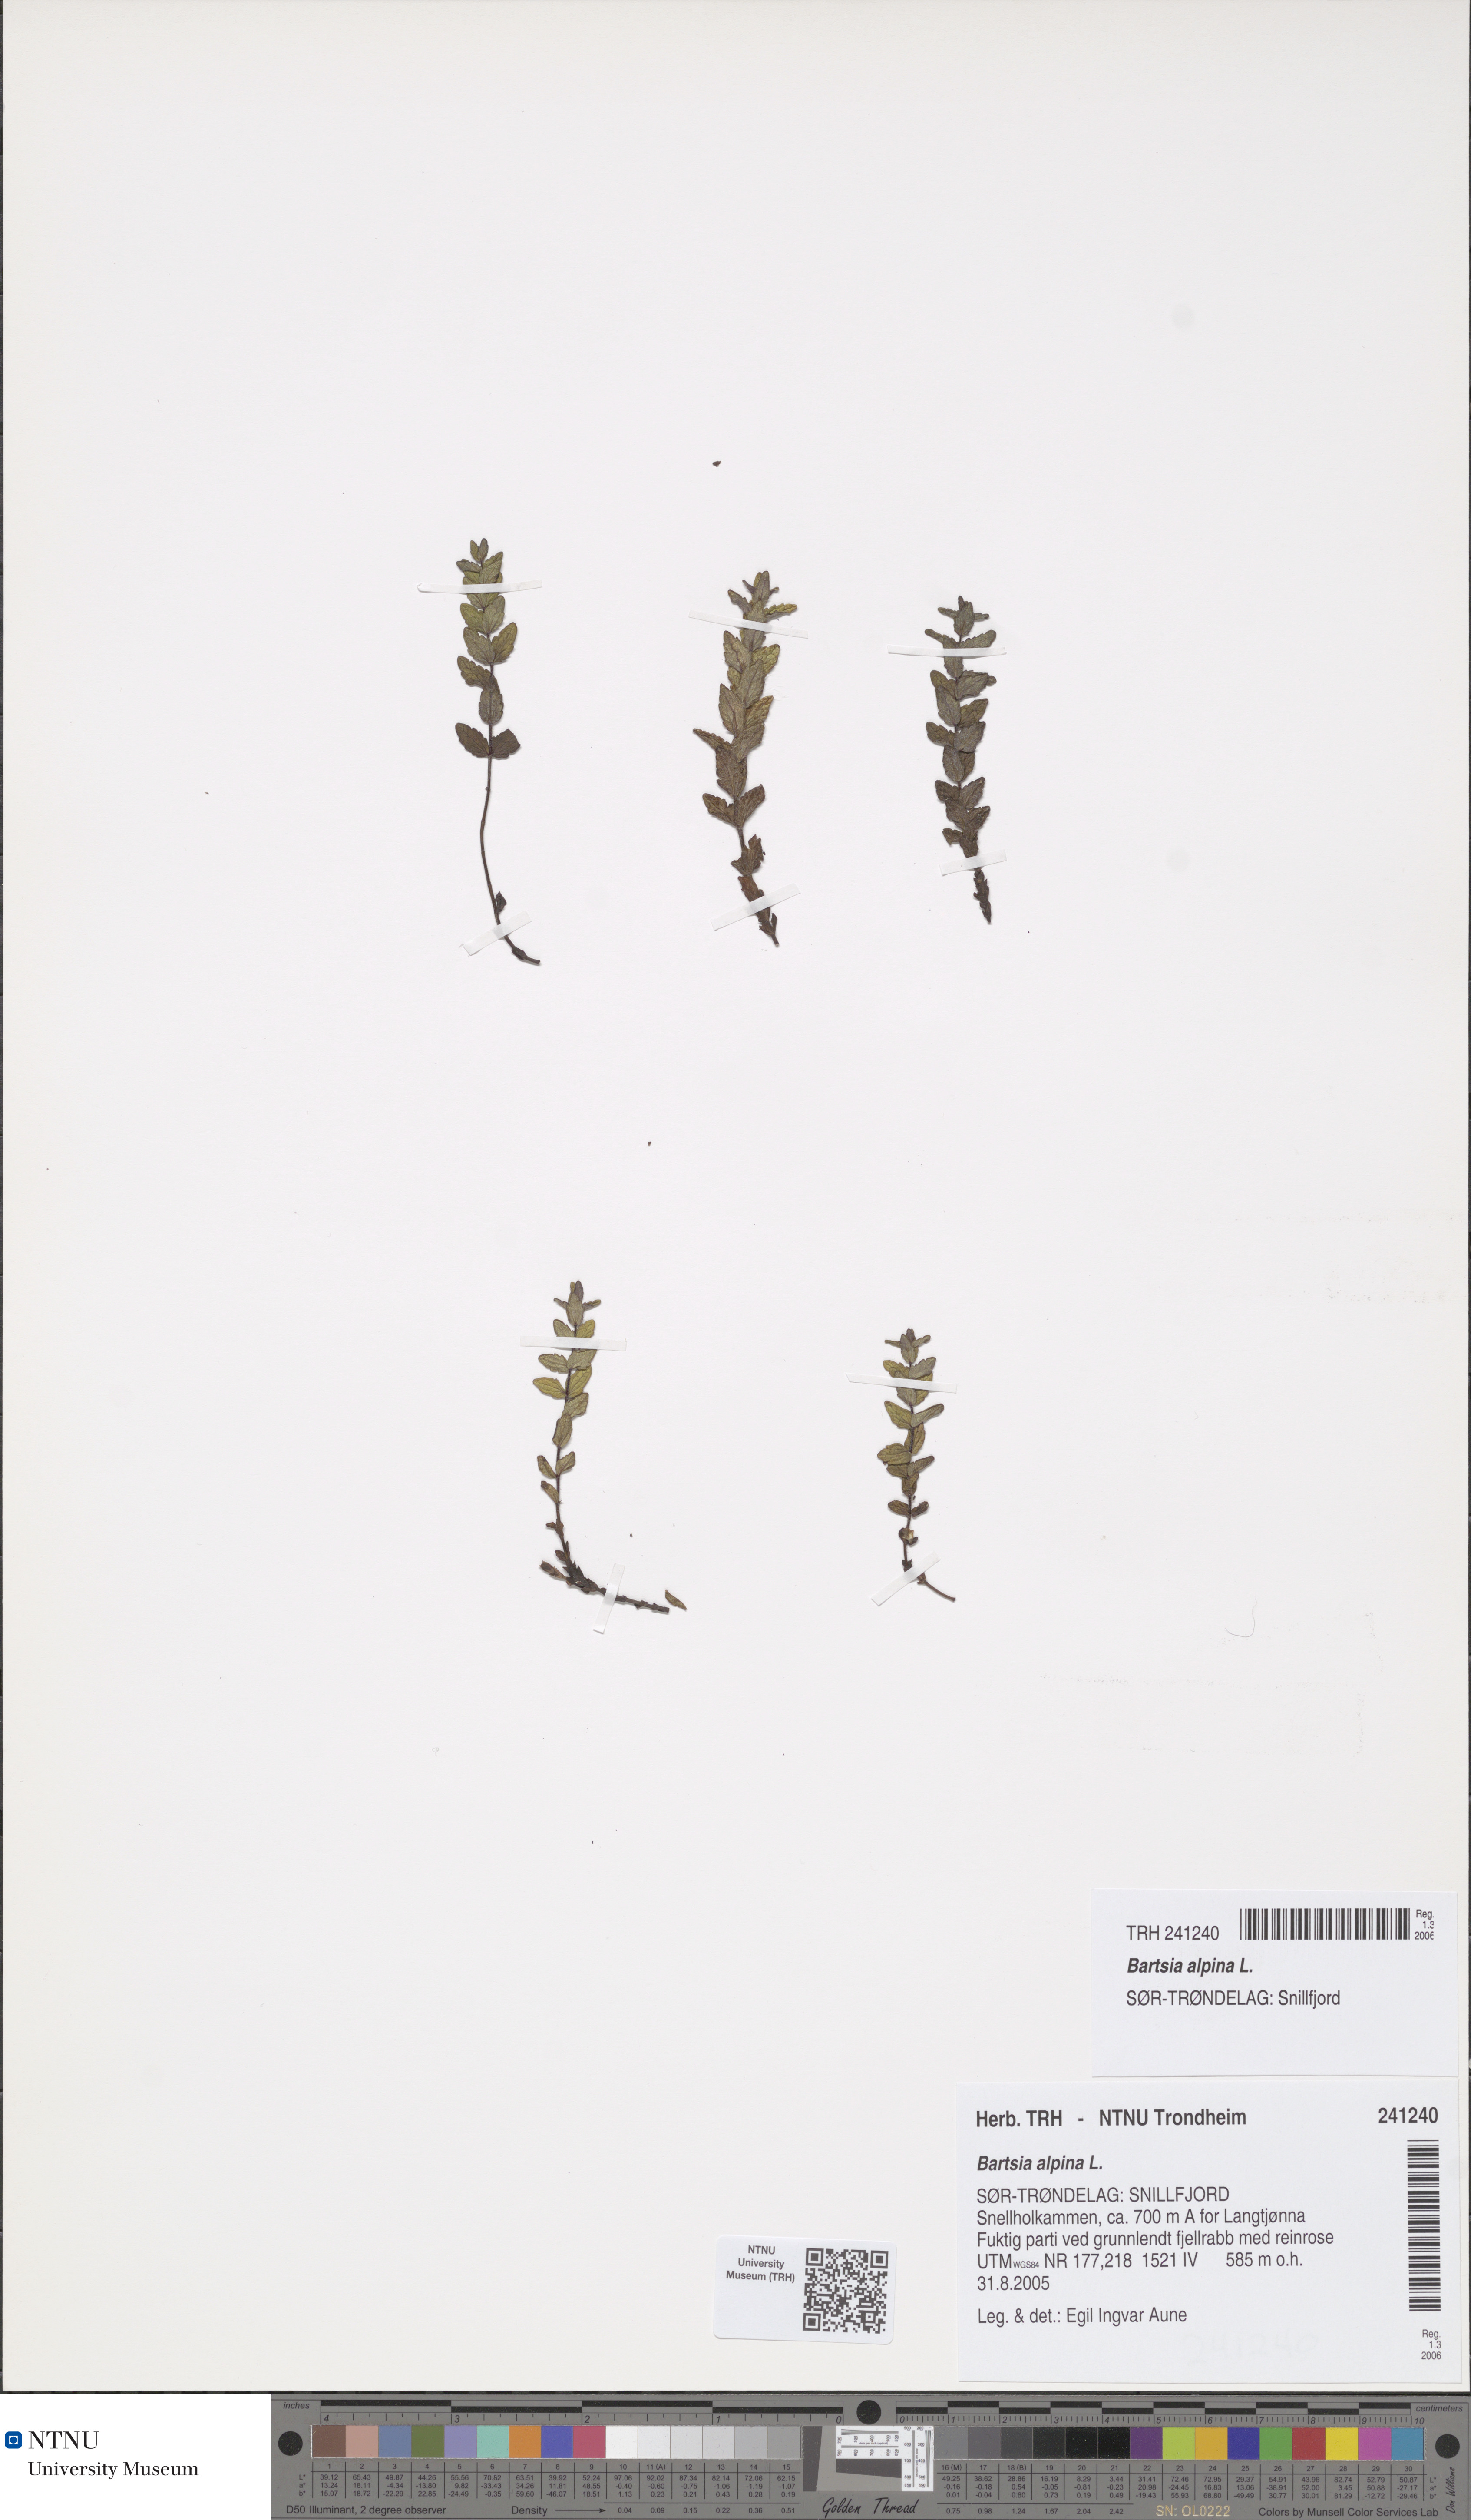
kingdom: Plantae
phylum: Tracheophyta
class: Magnoliopsida
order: Lamiales
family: Orobanchaceae
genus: Bartsia
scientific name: Bartsia alpina
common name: Alpine bartsia
